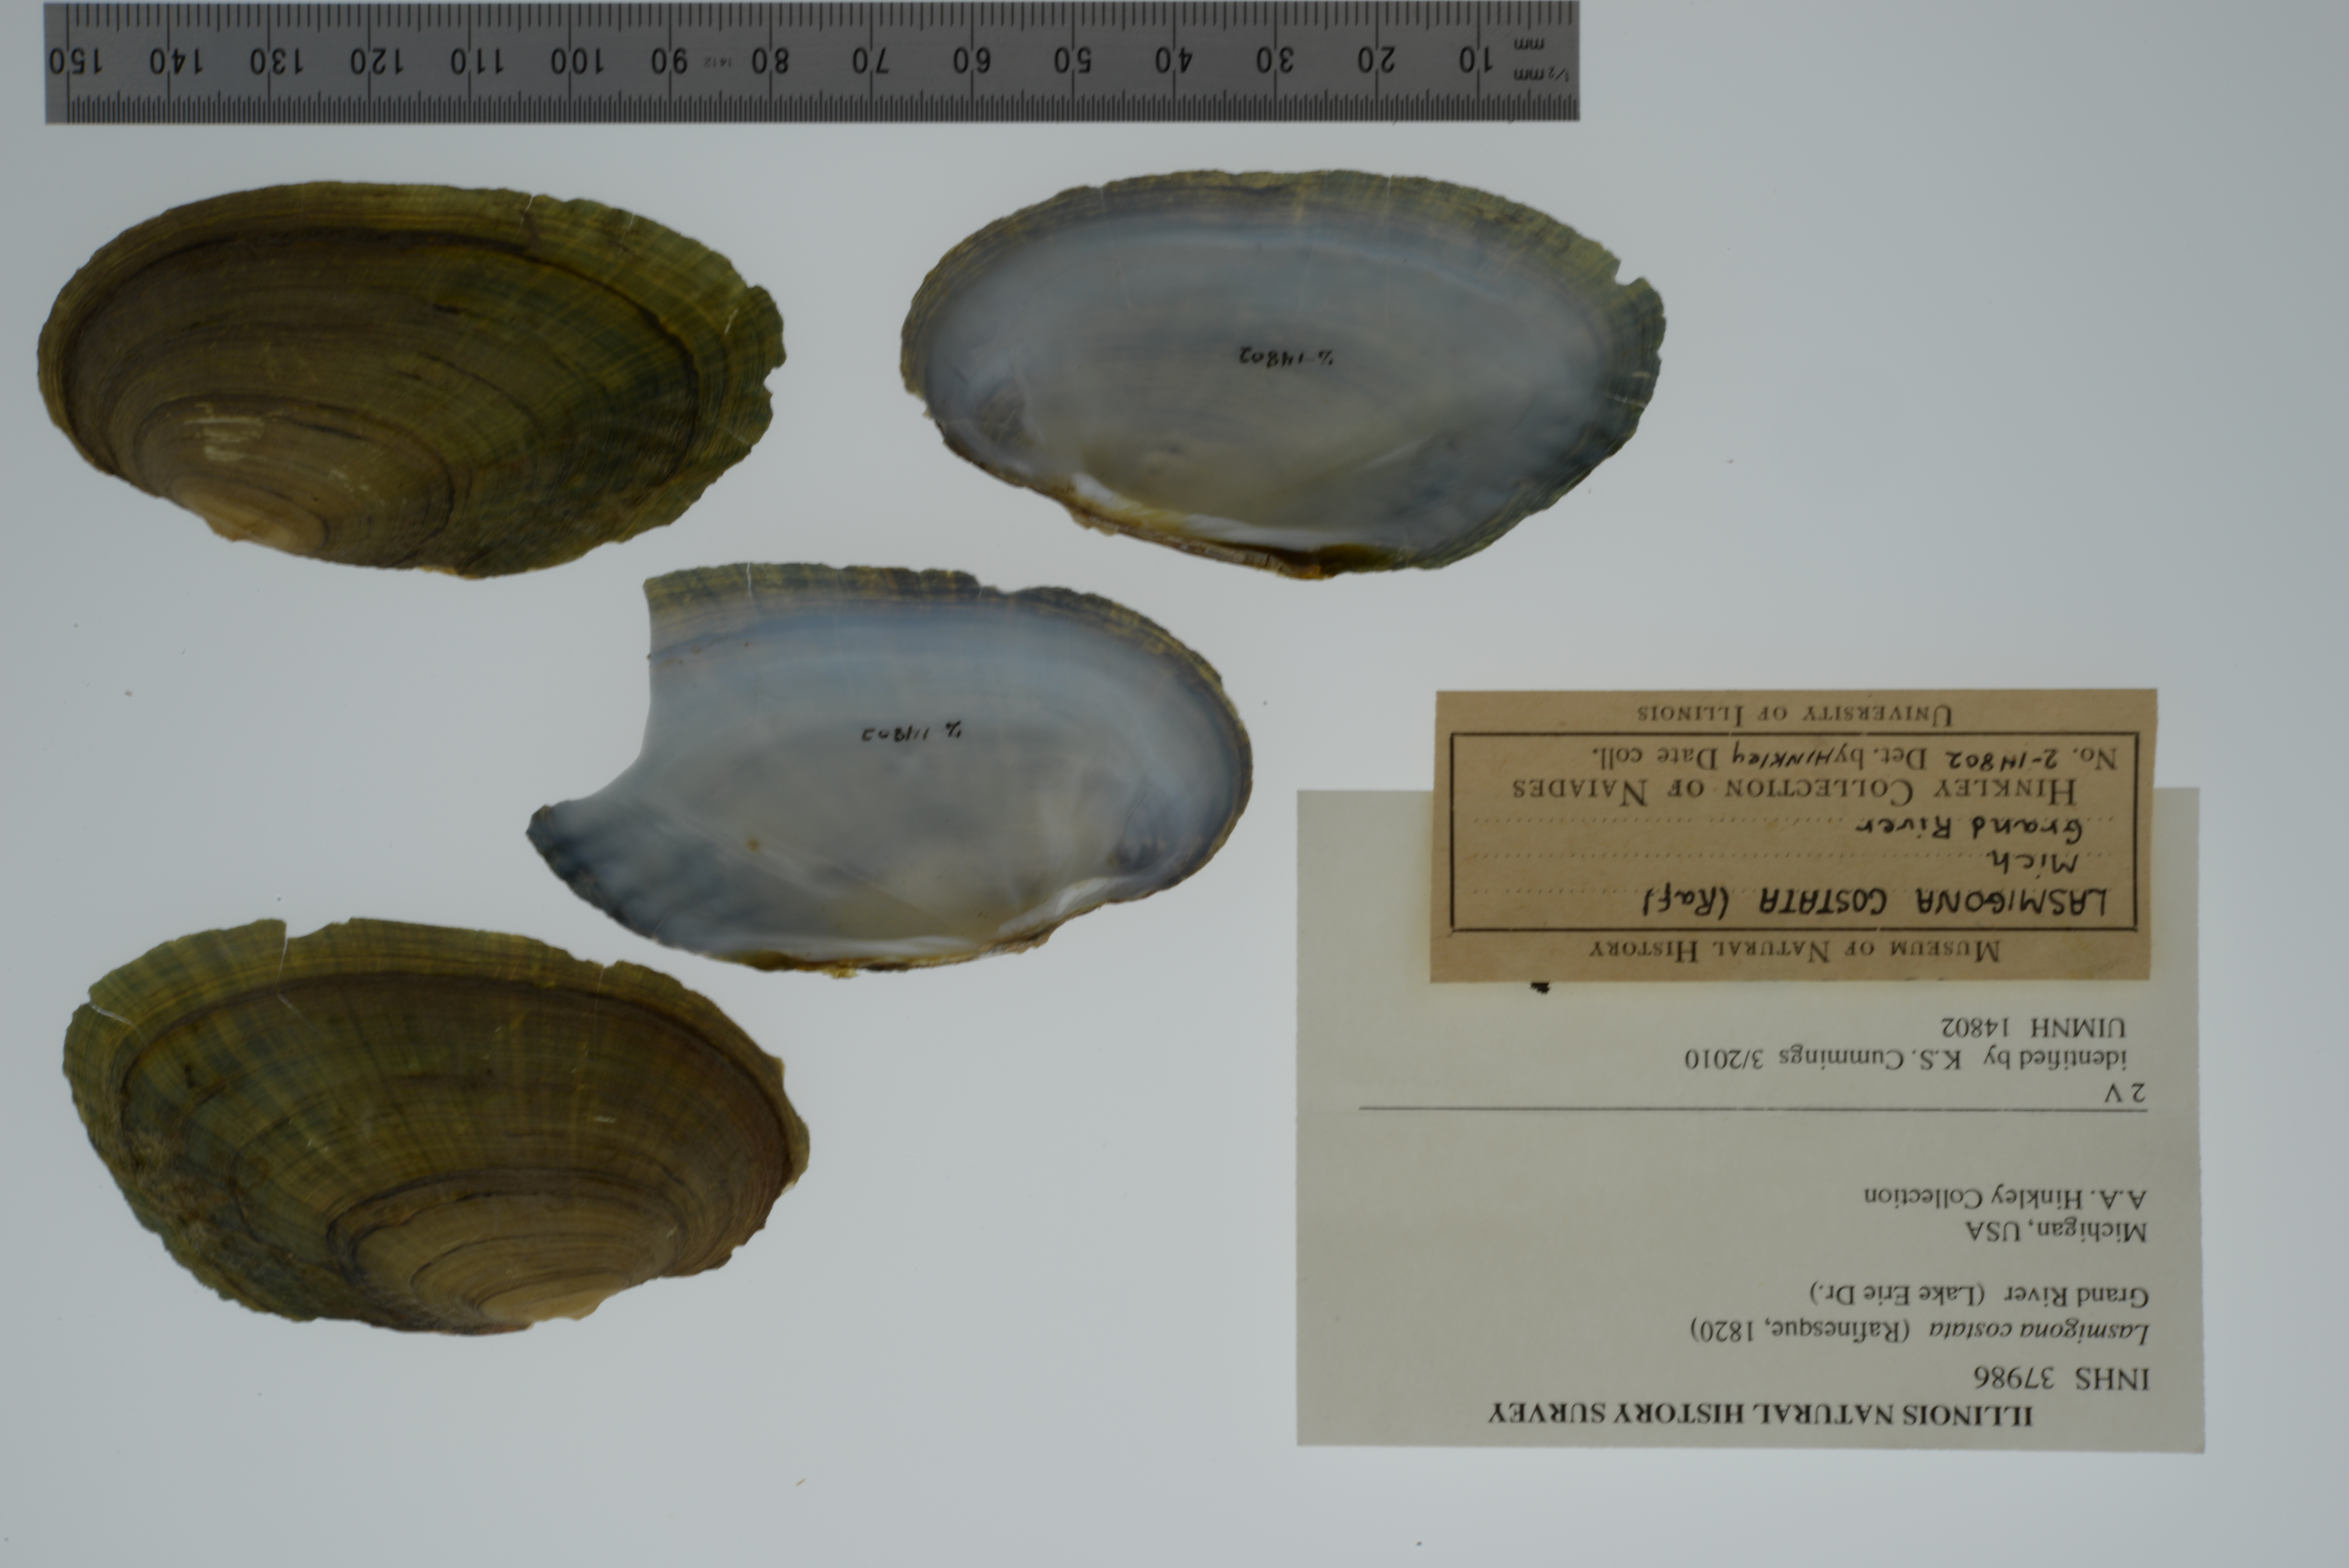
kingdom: Animalia
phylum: Mollusca
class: Bivalvia
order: Unionida
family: Unionidae
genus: Lasmigona
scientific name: Lasmigona costata
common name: Flutedshell
